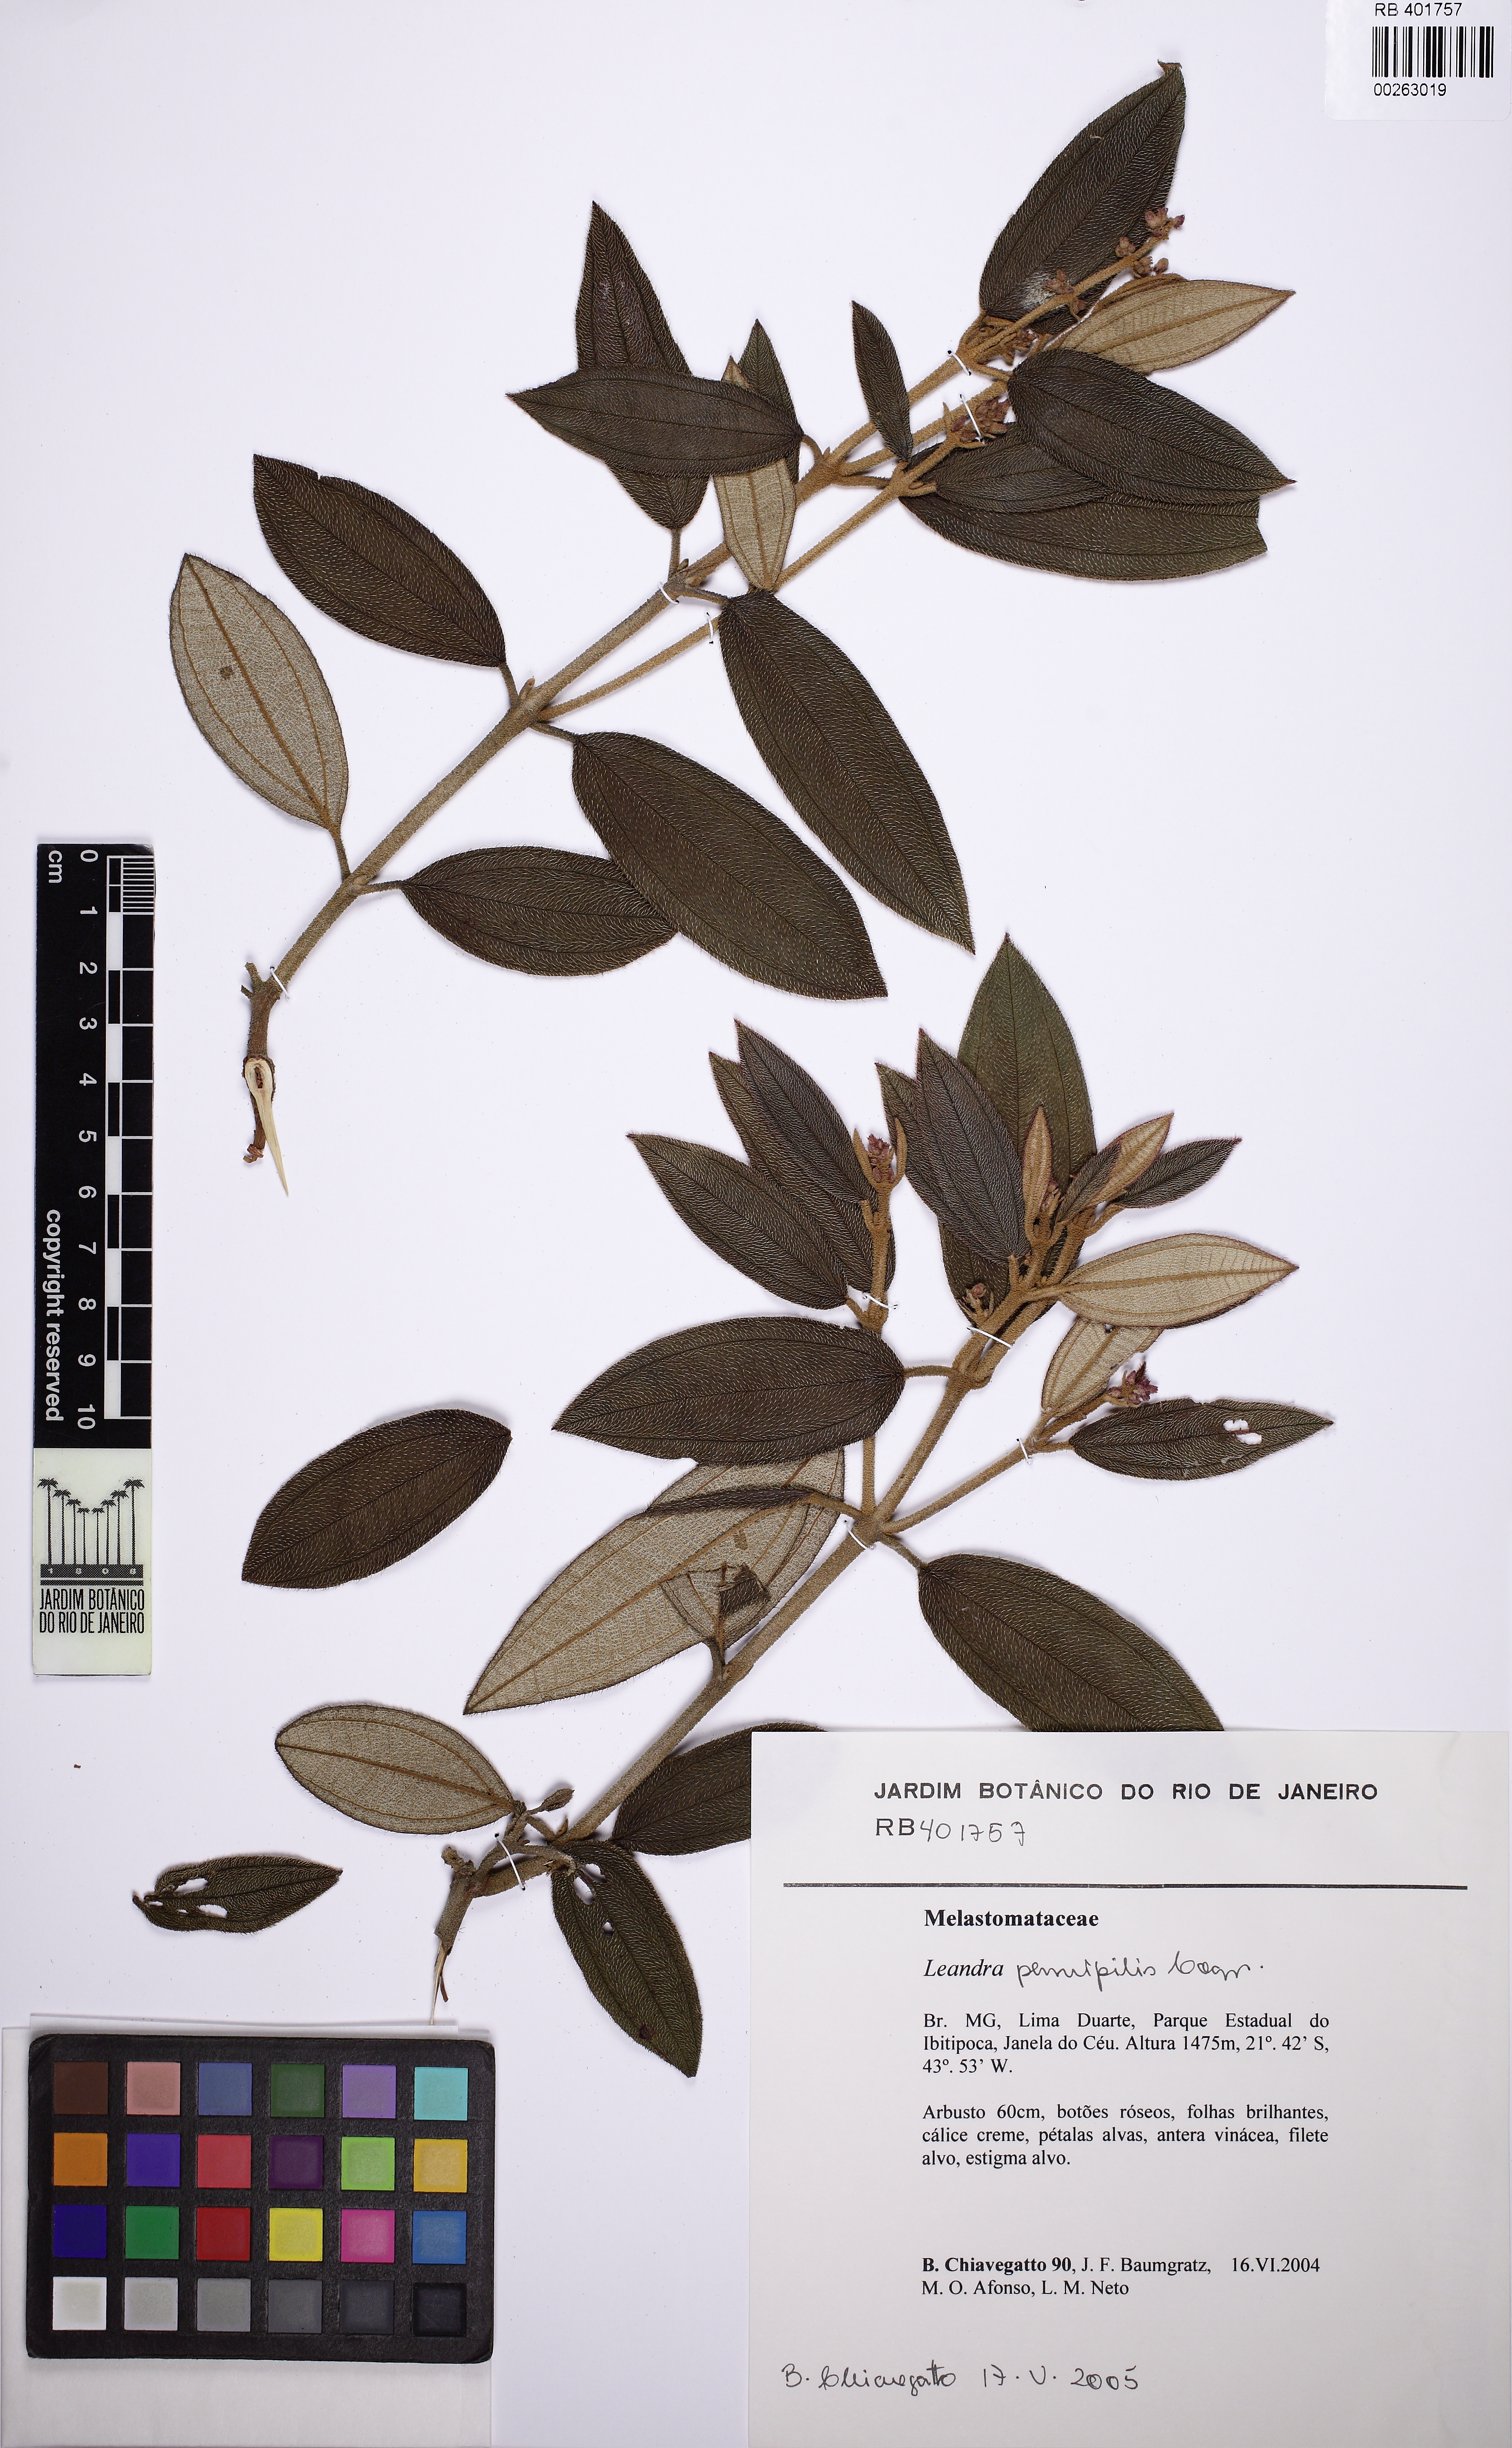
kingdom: Plantae
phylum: Tracheophyta
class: Magnoliopsida
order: Myrtales
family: Melastomataceae
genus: Miconia
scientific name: Miconia leapennipilis
